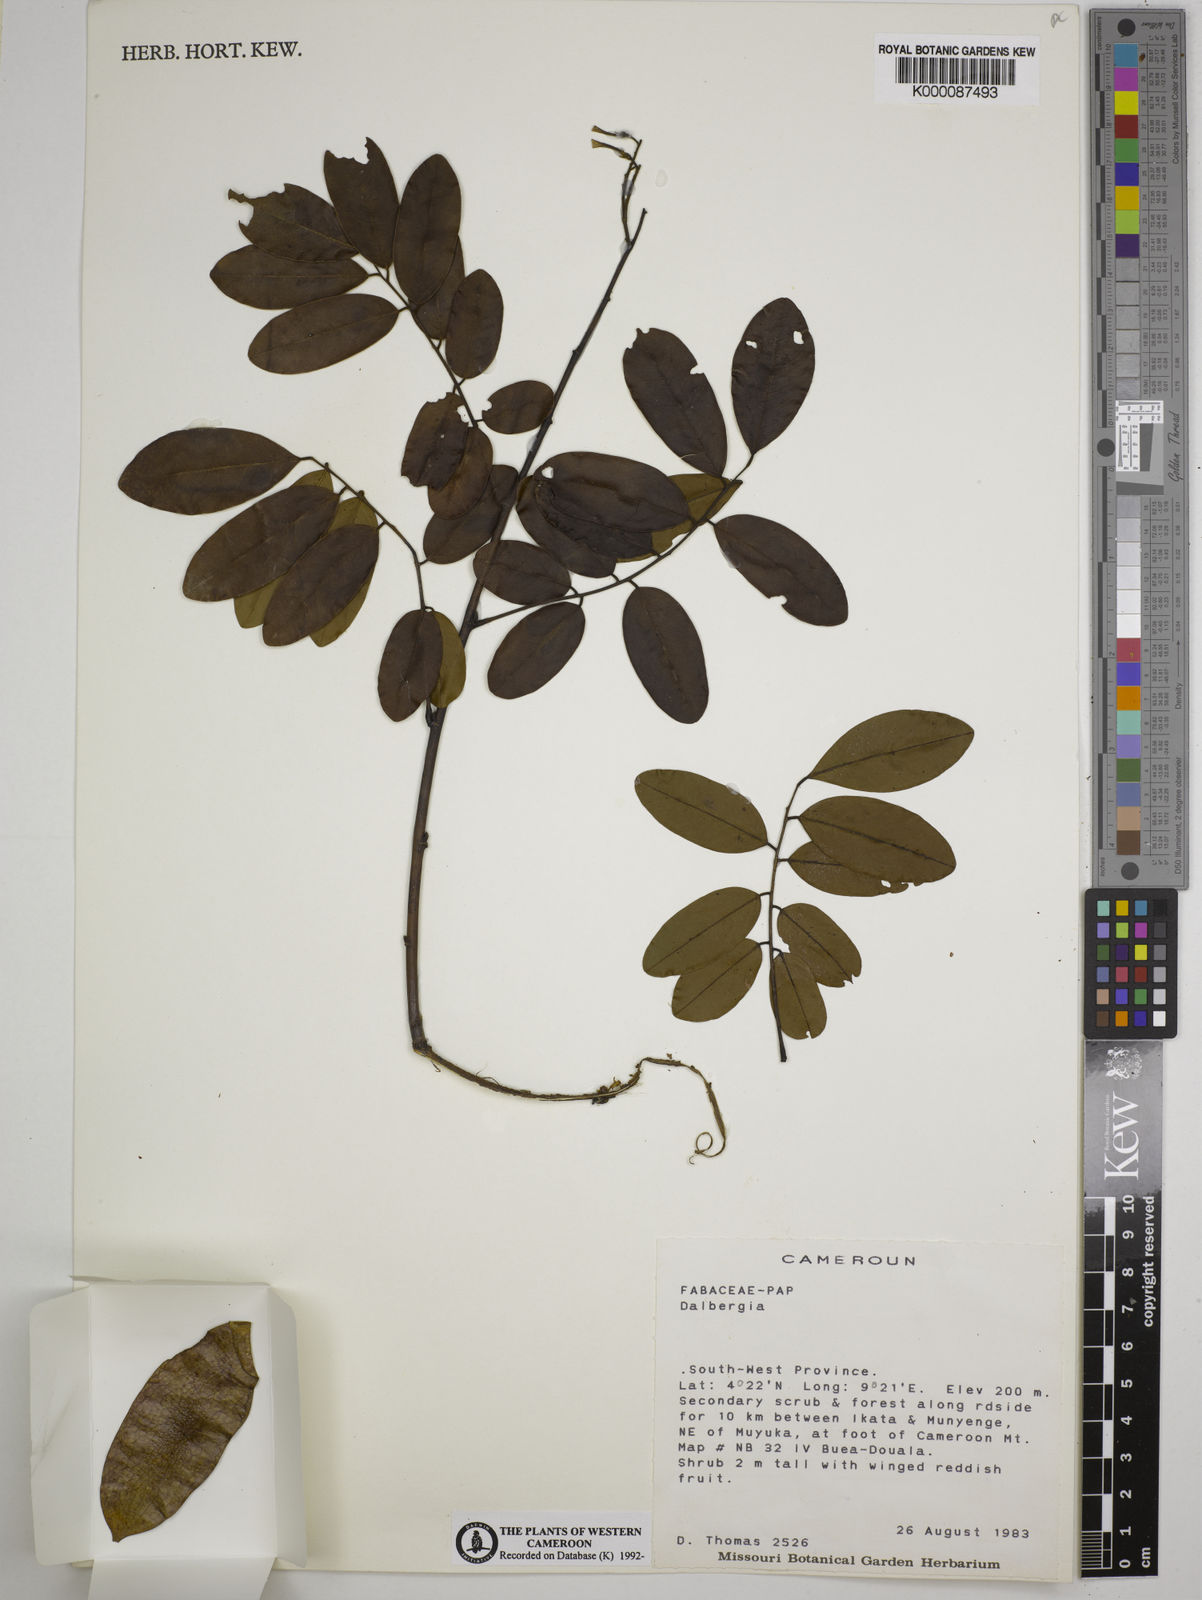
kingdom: Plantae
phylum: Tracheophyta
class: Magnoliopsida
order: Fabales
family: Fabaceae
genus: Dalbergia
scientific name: Dalbergia
